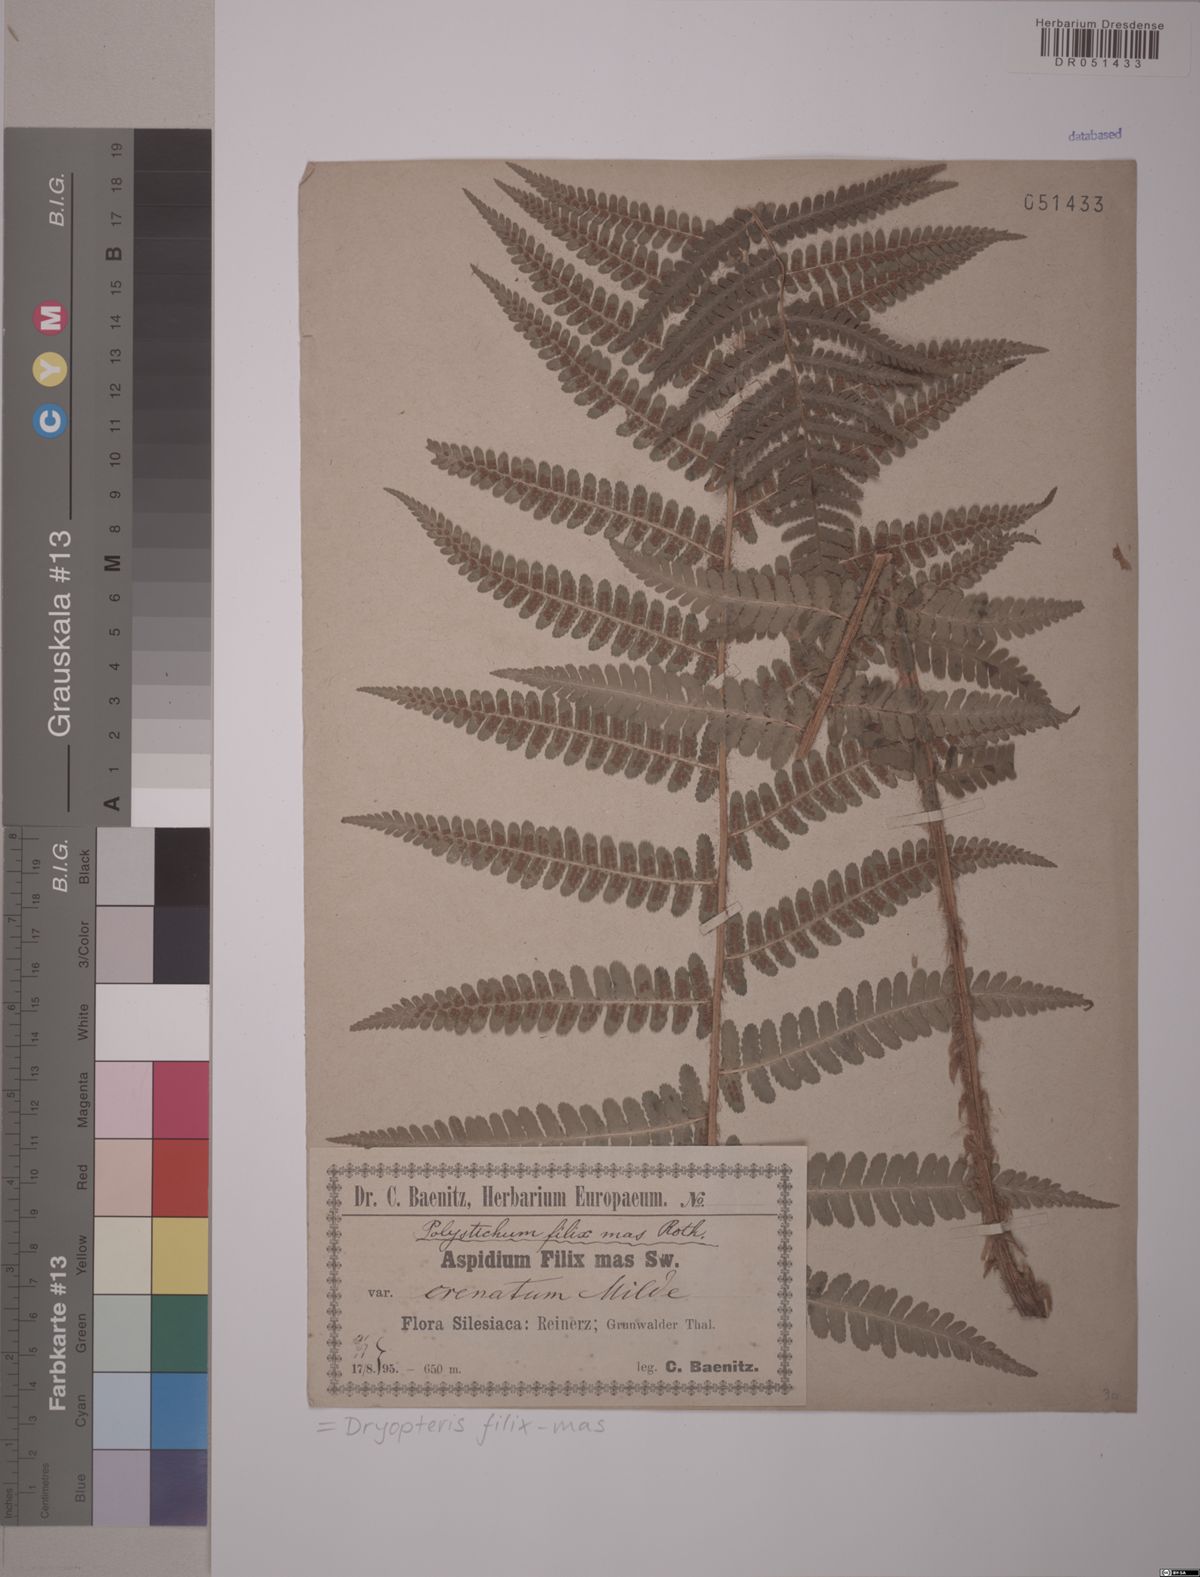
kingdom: Plantae
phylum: Tracheophyta
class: Polypodiopsida
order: Polypodiales
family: Dryopteridaceae
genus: Dryopteris
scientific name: Dryopteris filix-mas
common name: Male fern
